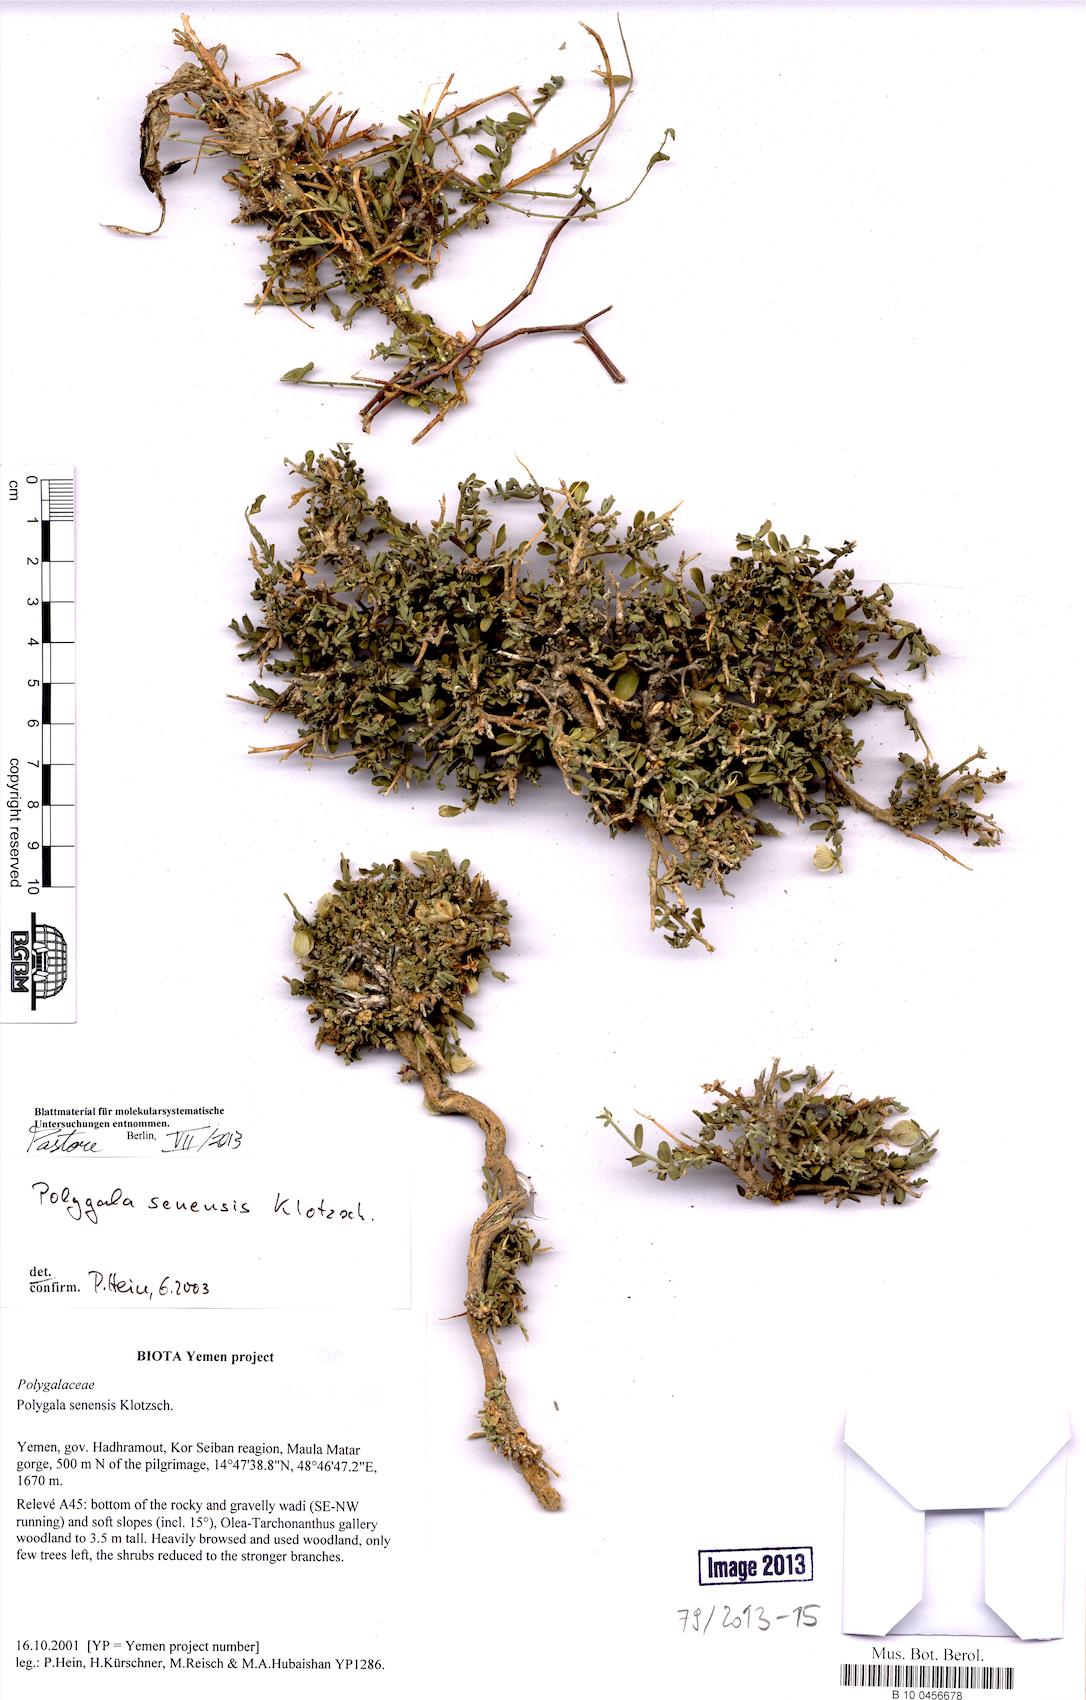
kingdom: Plantae
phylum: Tracheophyta
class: Magnoliopsida
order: Fabales
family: Polygalaceae
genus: Polygala
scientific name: Polygala senensis
